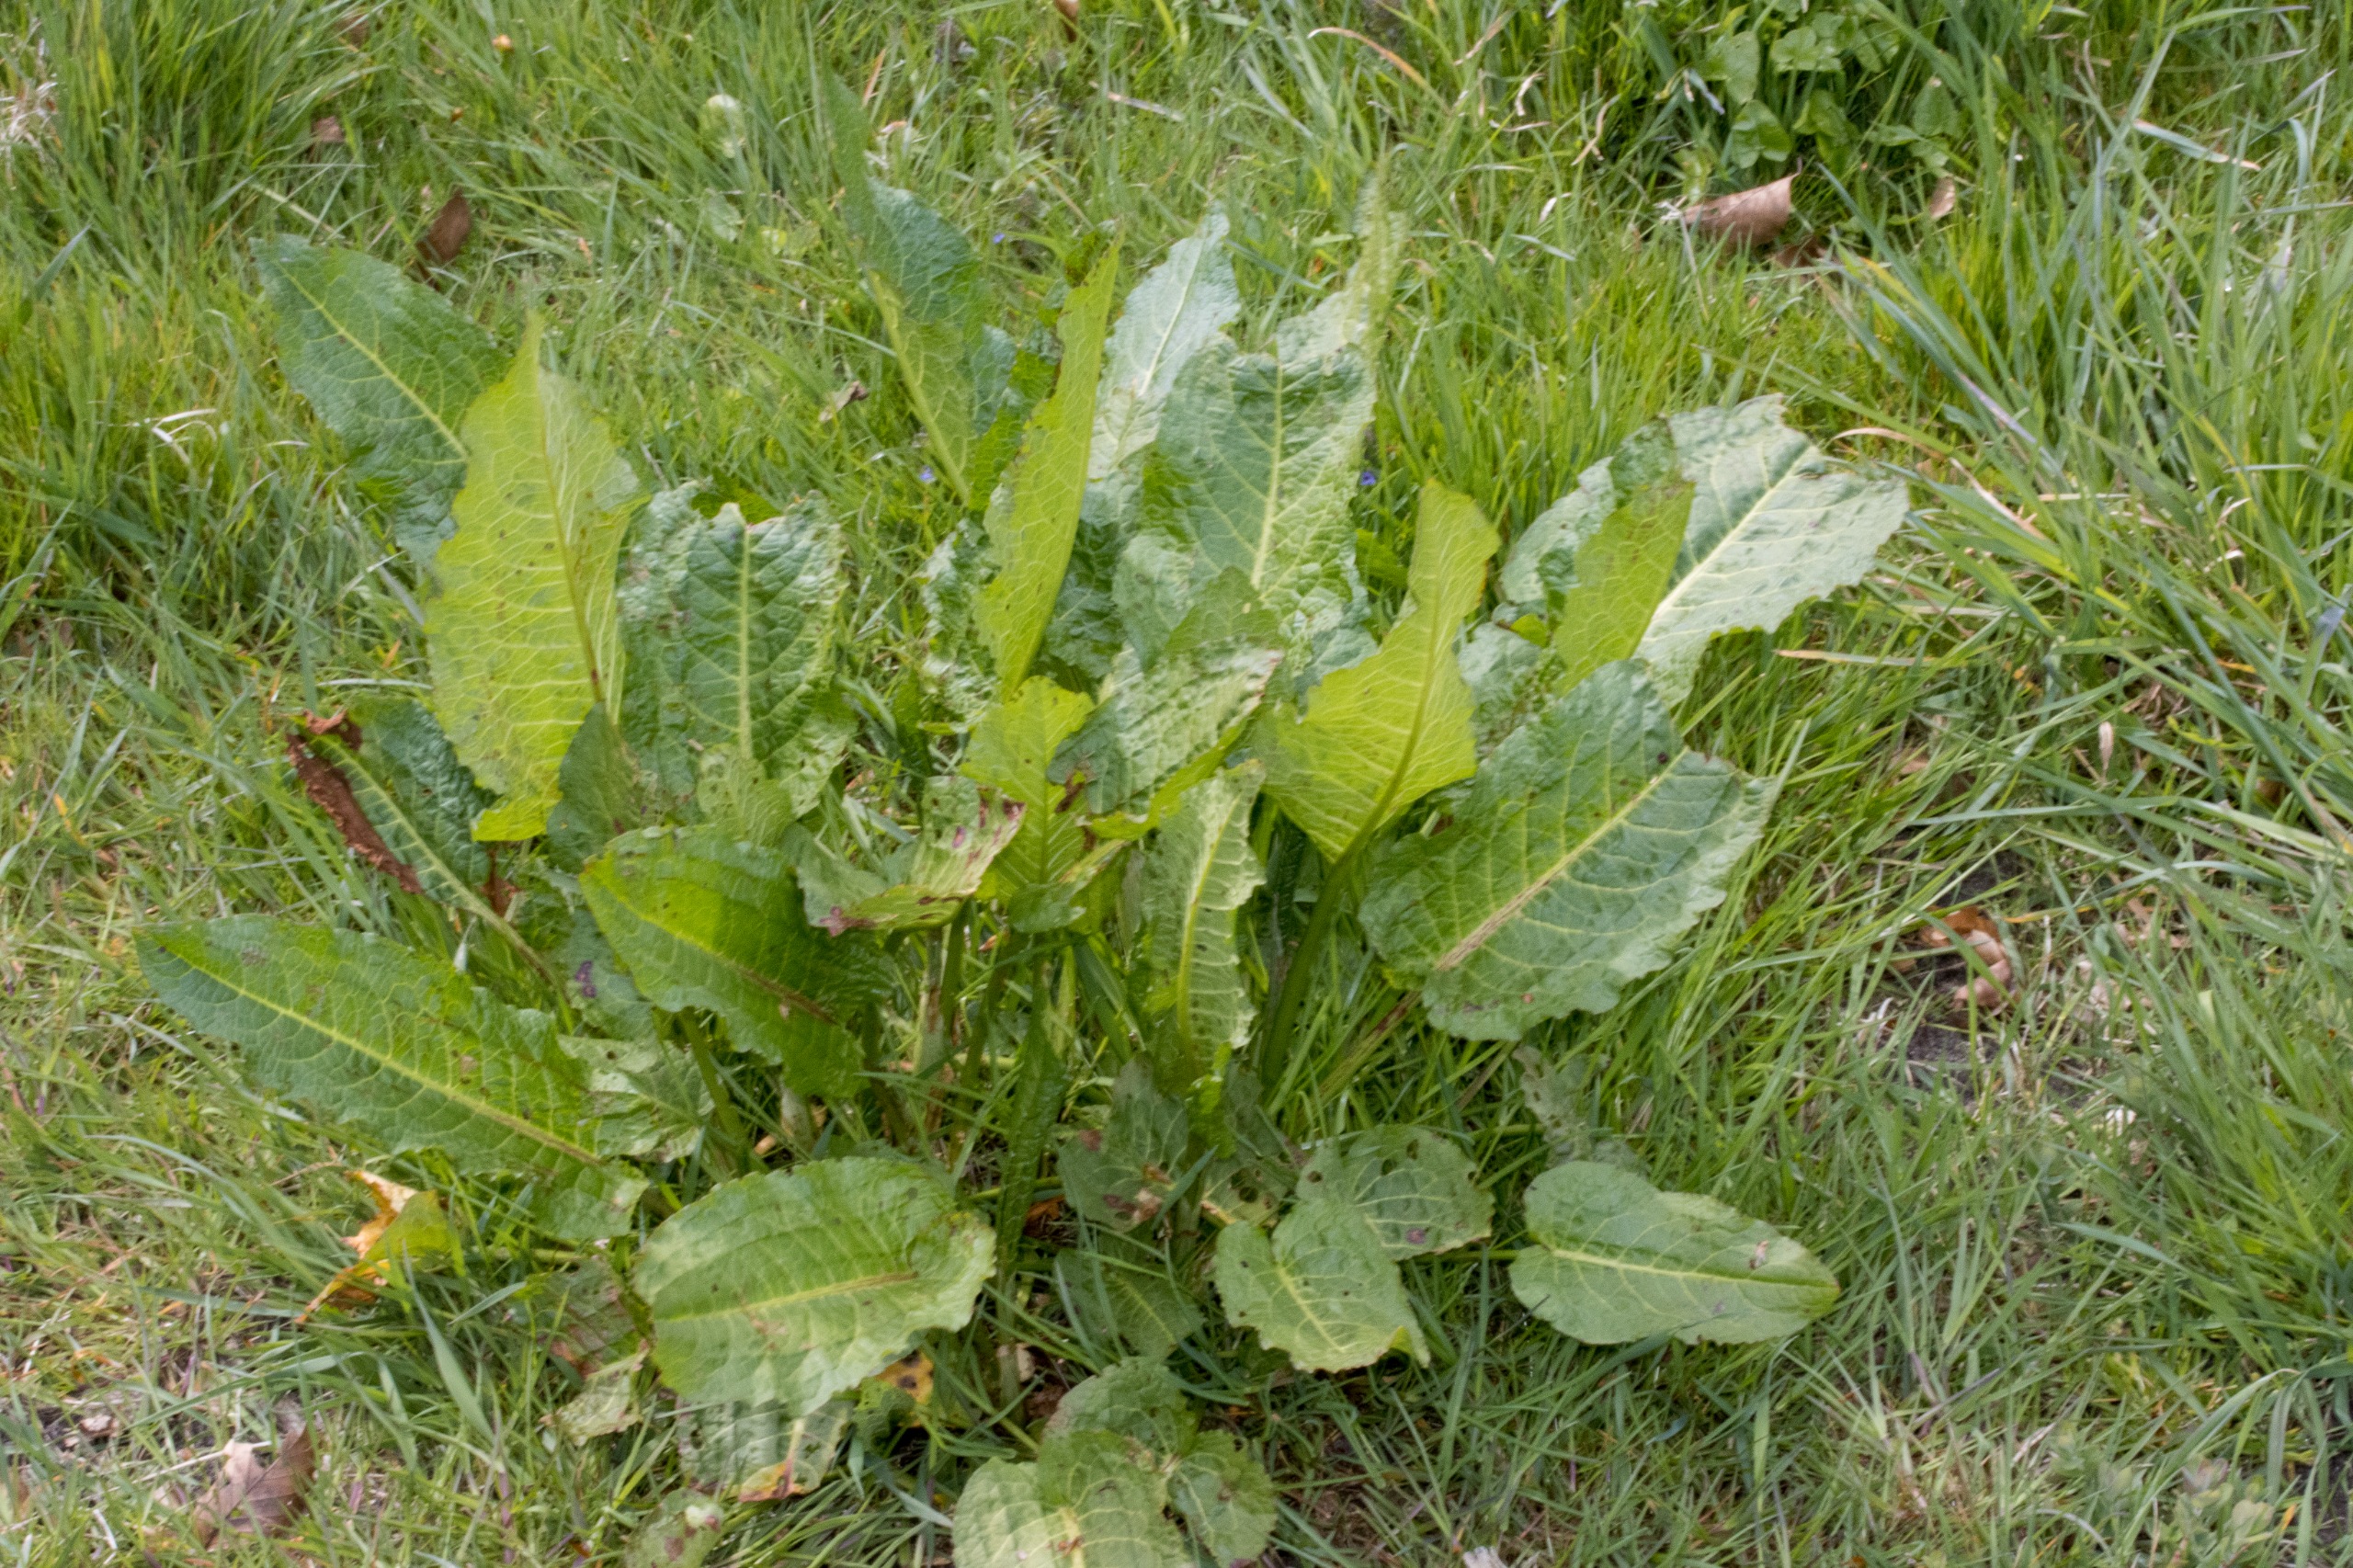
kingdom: Plantae
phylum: Tracheophyta
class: Magnoliopsida
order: Caryophyllales
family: Polygonaceae
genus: Rumex
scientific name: Rumex obtusifolius
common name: Butbladet skræppe
